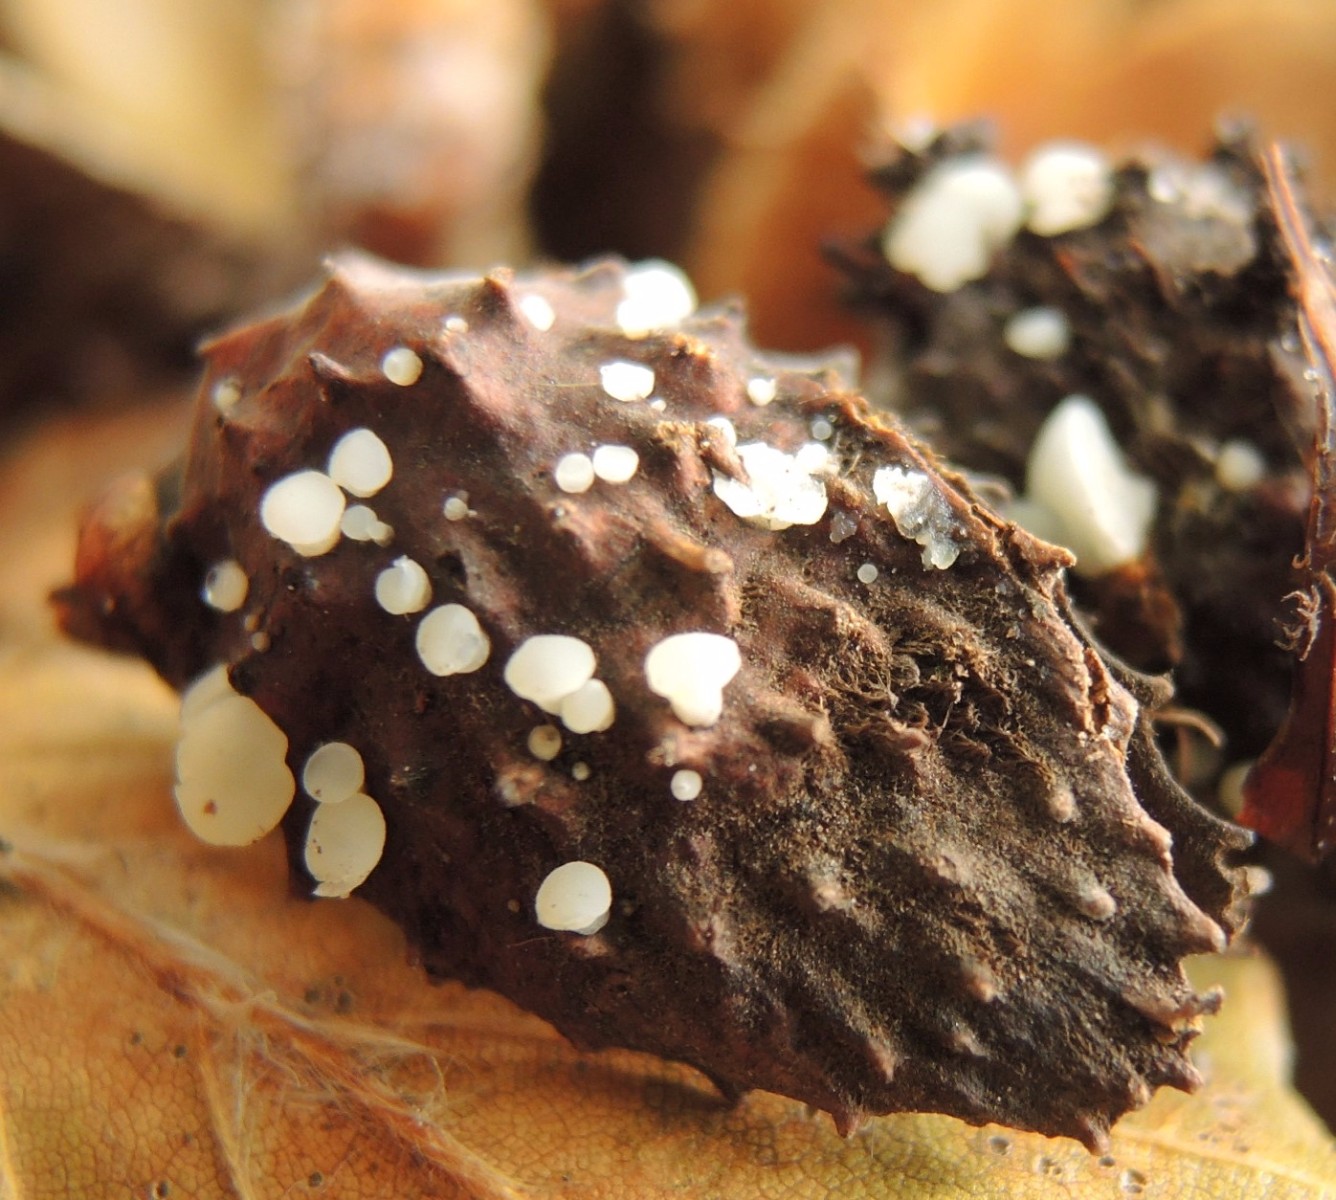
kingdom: Fungi
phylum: Ascomycota
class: Leotiomycetes
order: Helotiales
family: Helotiaceae
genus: Hymenoscyphus
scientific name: Hymenoscyphus fagineus
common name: vellugtende stilkskive
